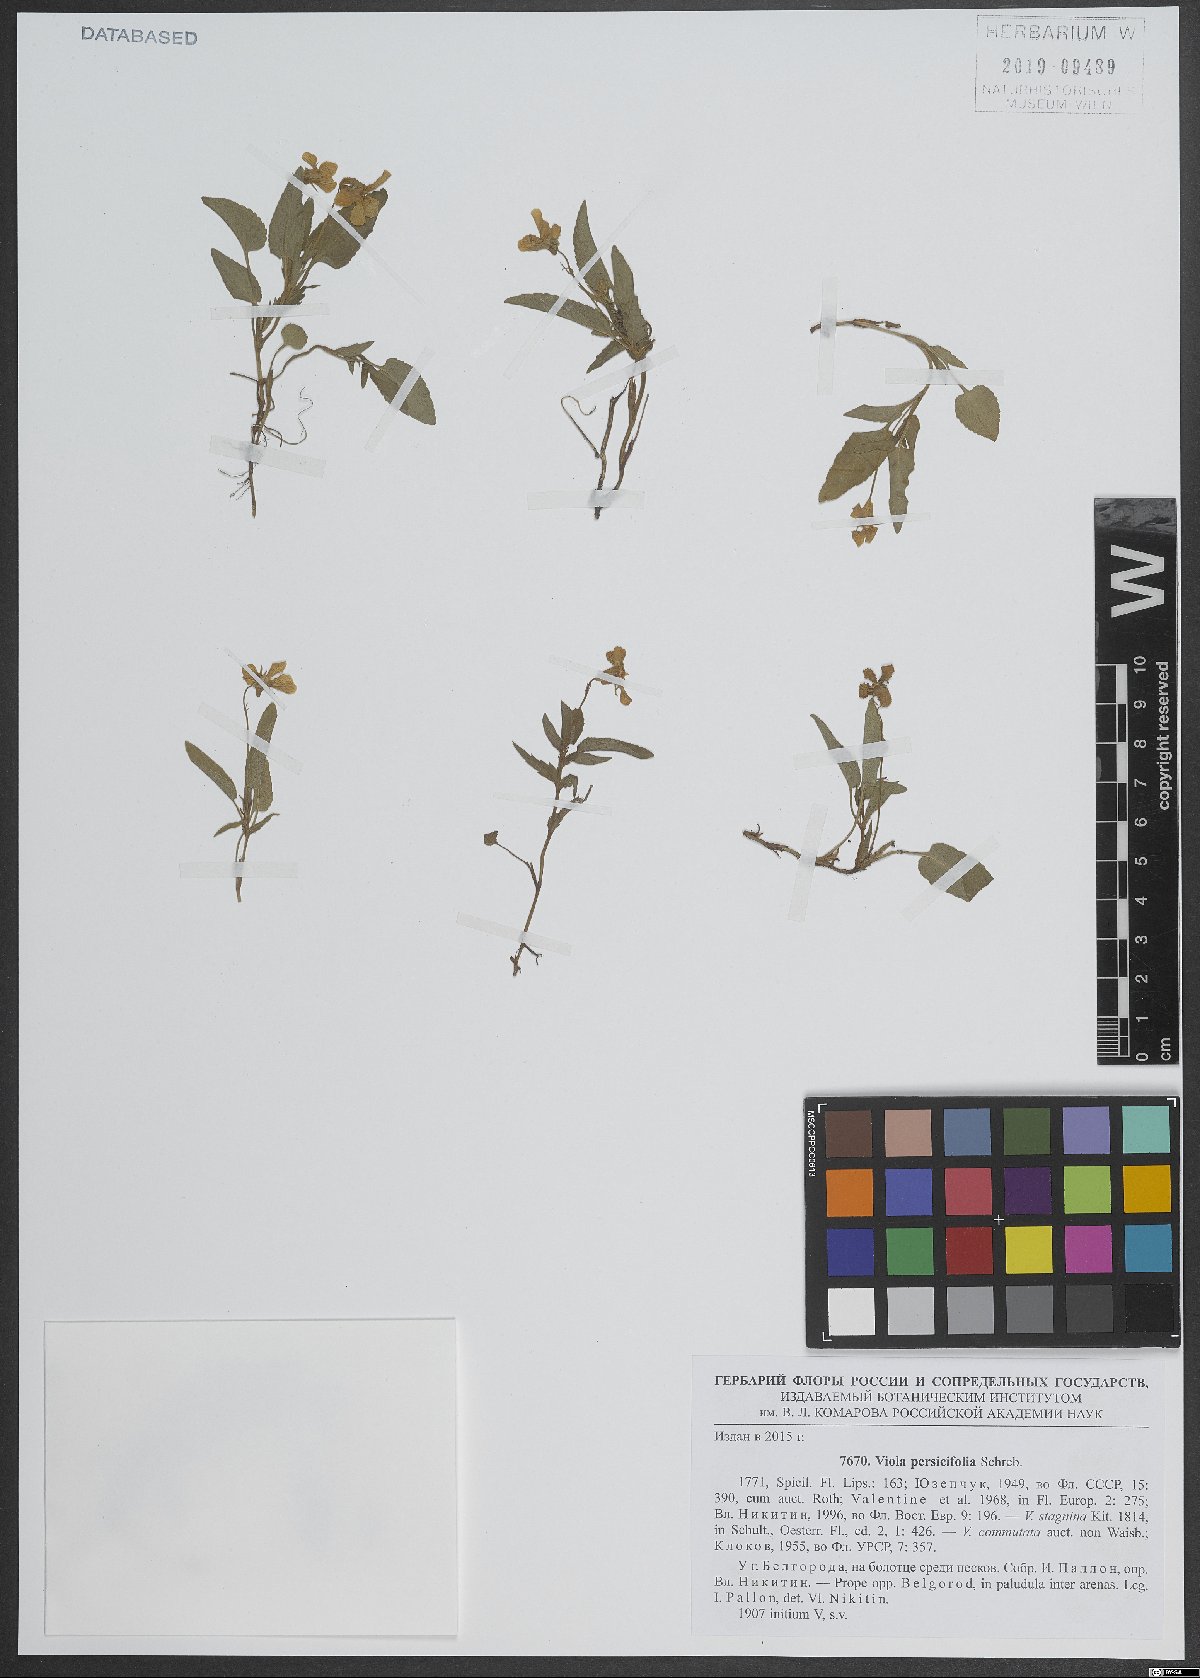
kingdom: Plantae
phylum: Tracheophyta
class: Magnoliopsida
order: Malpighiales
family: Violaceae
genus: Viola
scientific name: Viola stagnina
